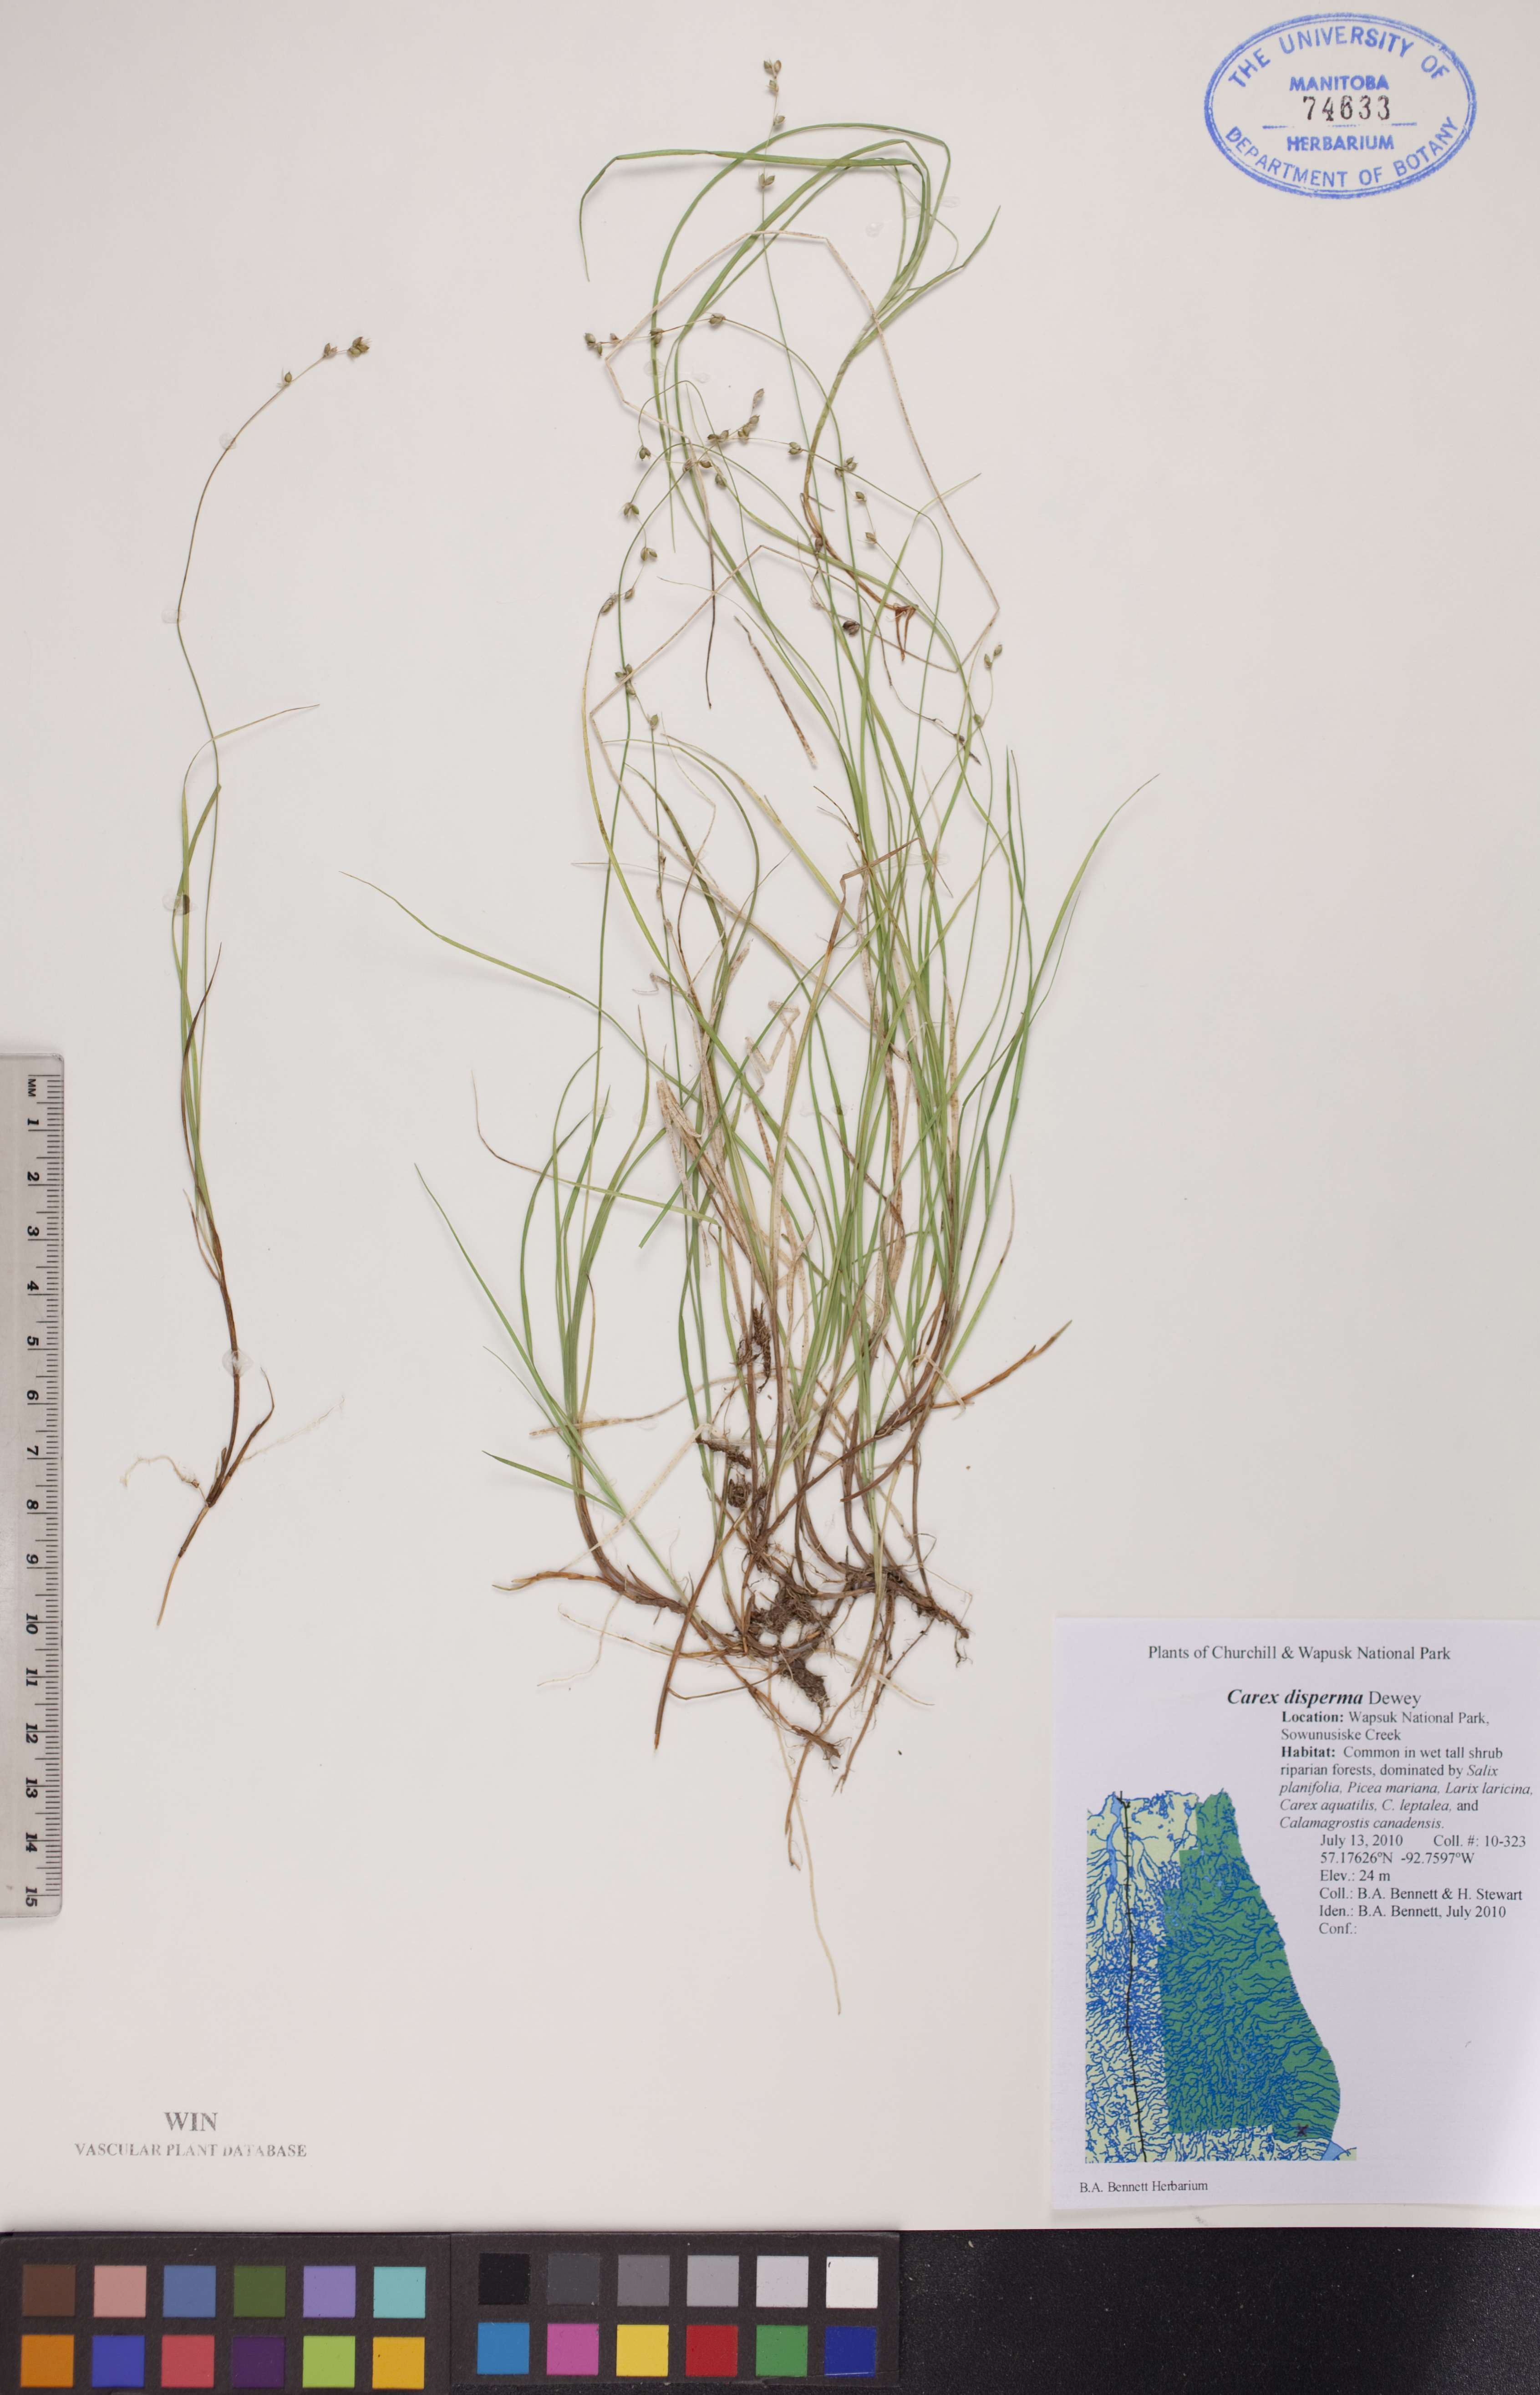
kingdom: Plantae
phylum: Tracheophyta
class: Liliopsida
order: Poales
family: Cyperaceae
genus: Carex
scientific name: Carex disperma
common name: Short-leaved sedge
